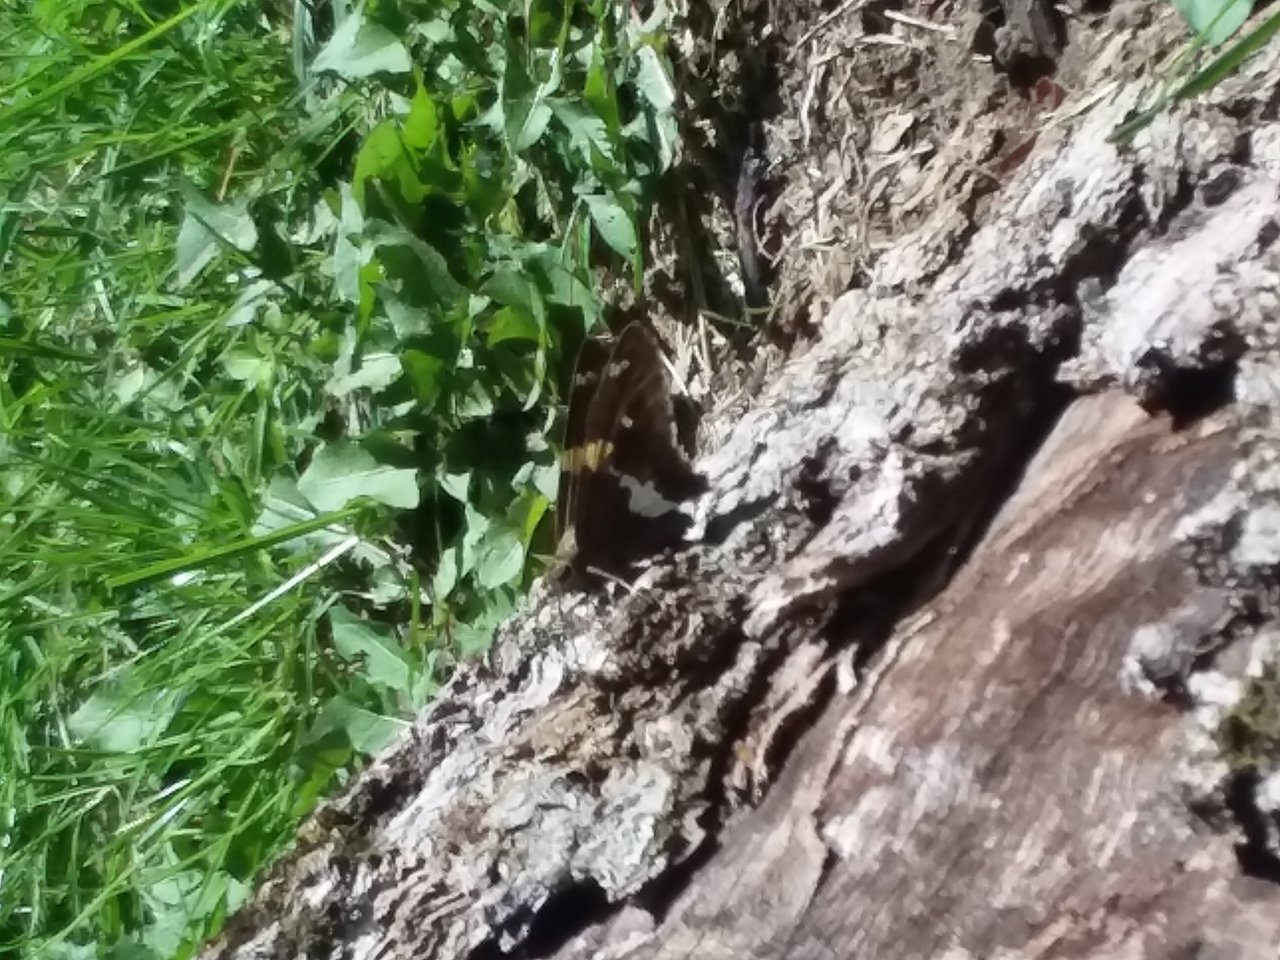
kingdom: Animalia
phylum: Arthropoda
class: Insecta
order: Lepidoptera
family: Hesperiidae
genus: Epargyreus
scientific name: Epargyreus clarus
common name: Silver-spotted Skipper
